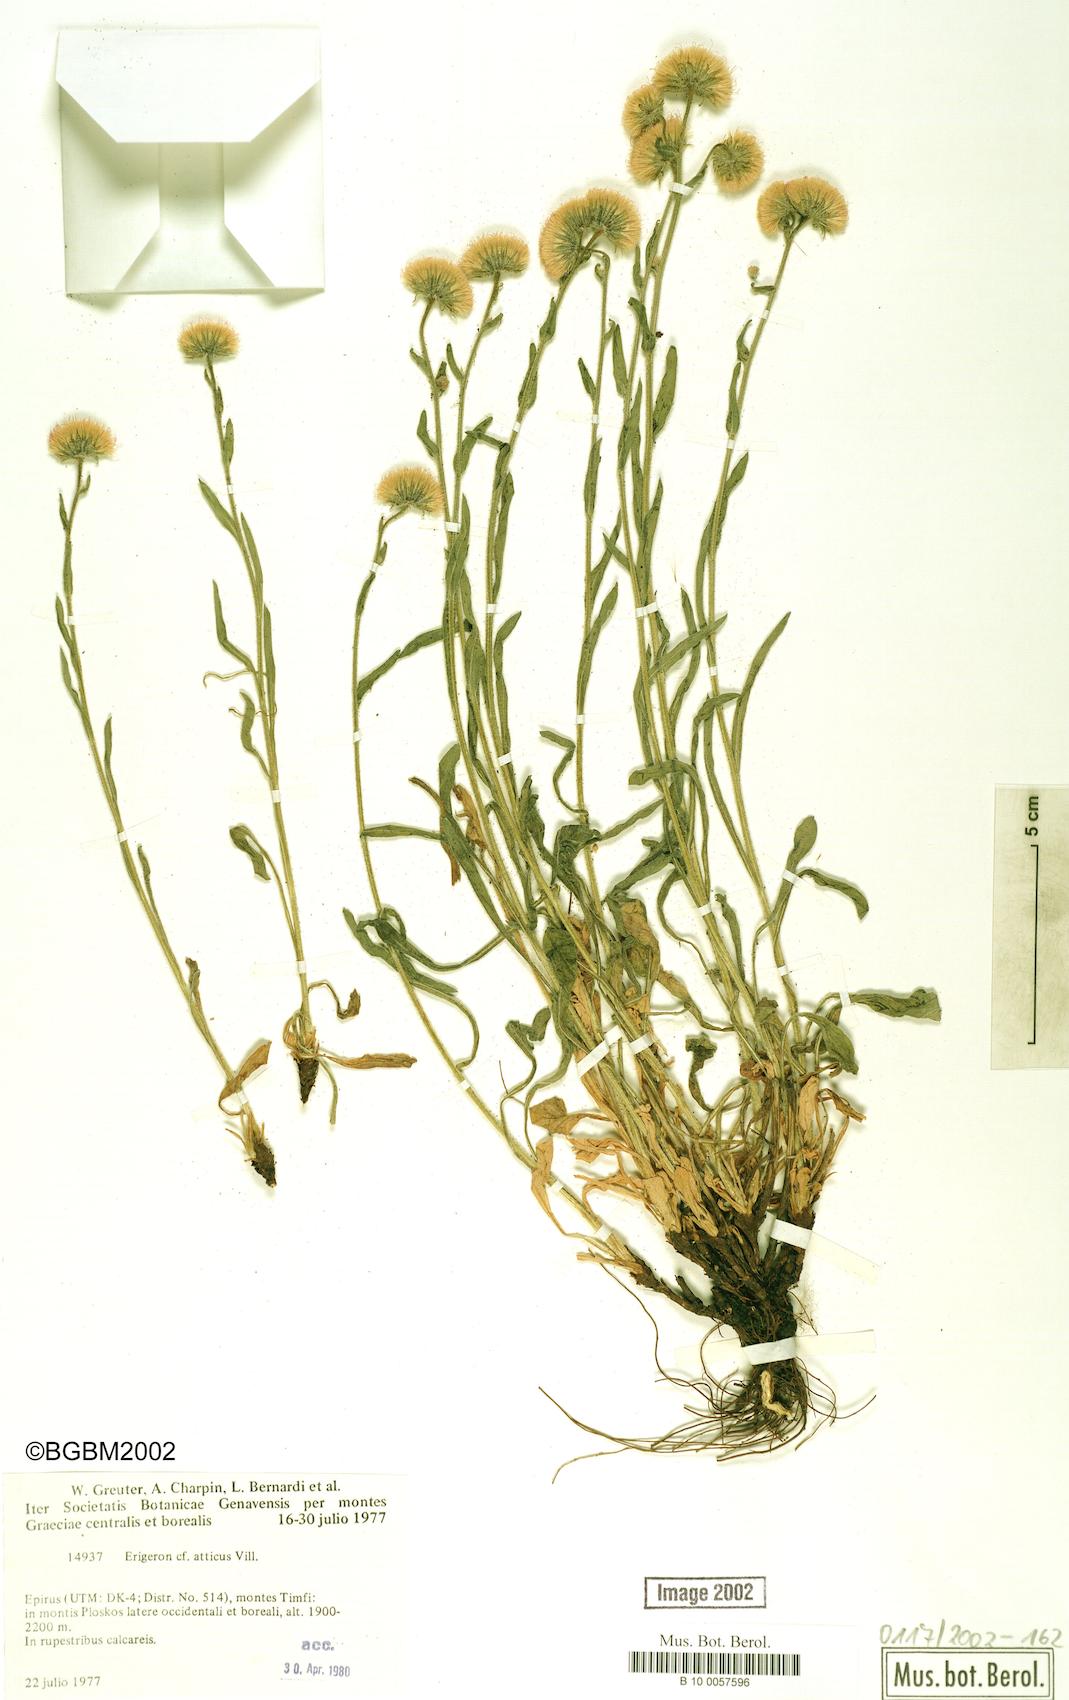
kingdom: Plantae
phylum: Tracheophyta
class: Magnoliopsida
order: Asterales
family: Asteraceae
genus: Erigeron
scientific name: Erigeron atticus
